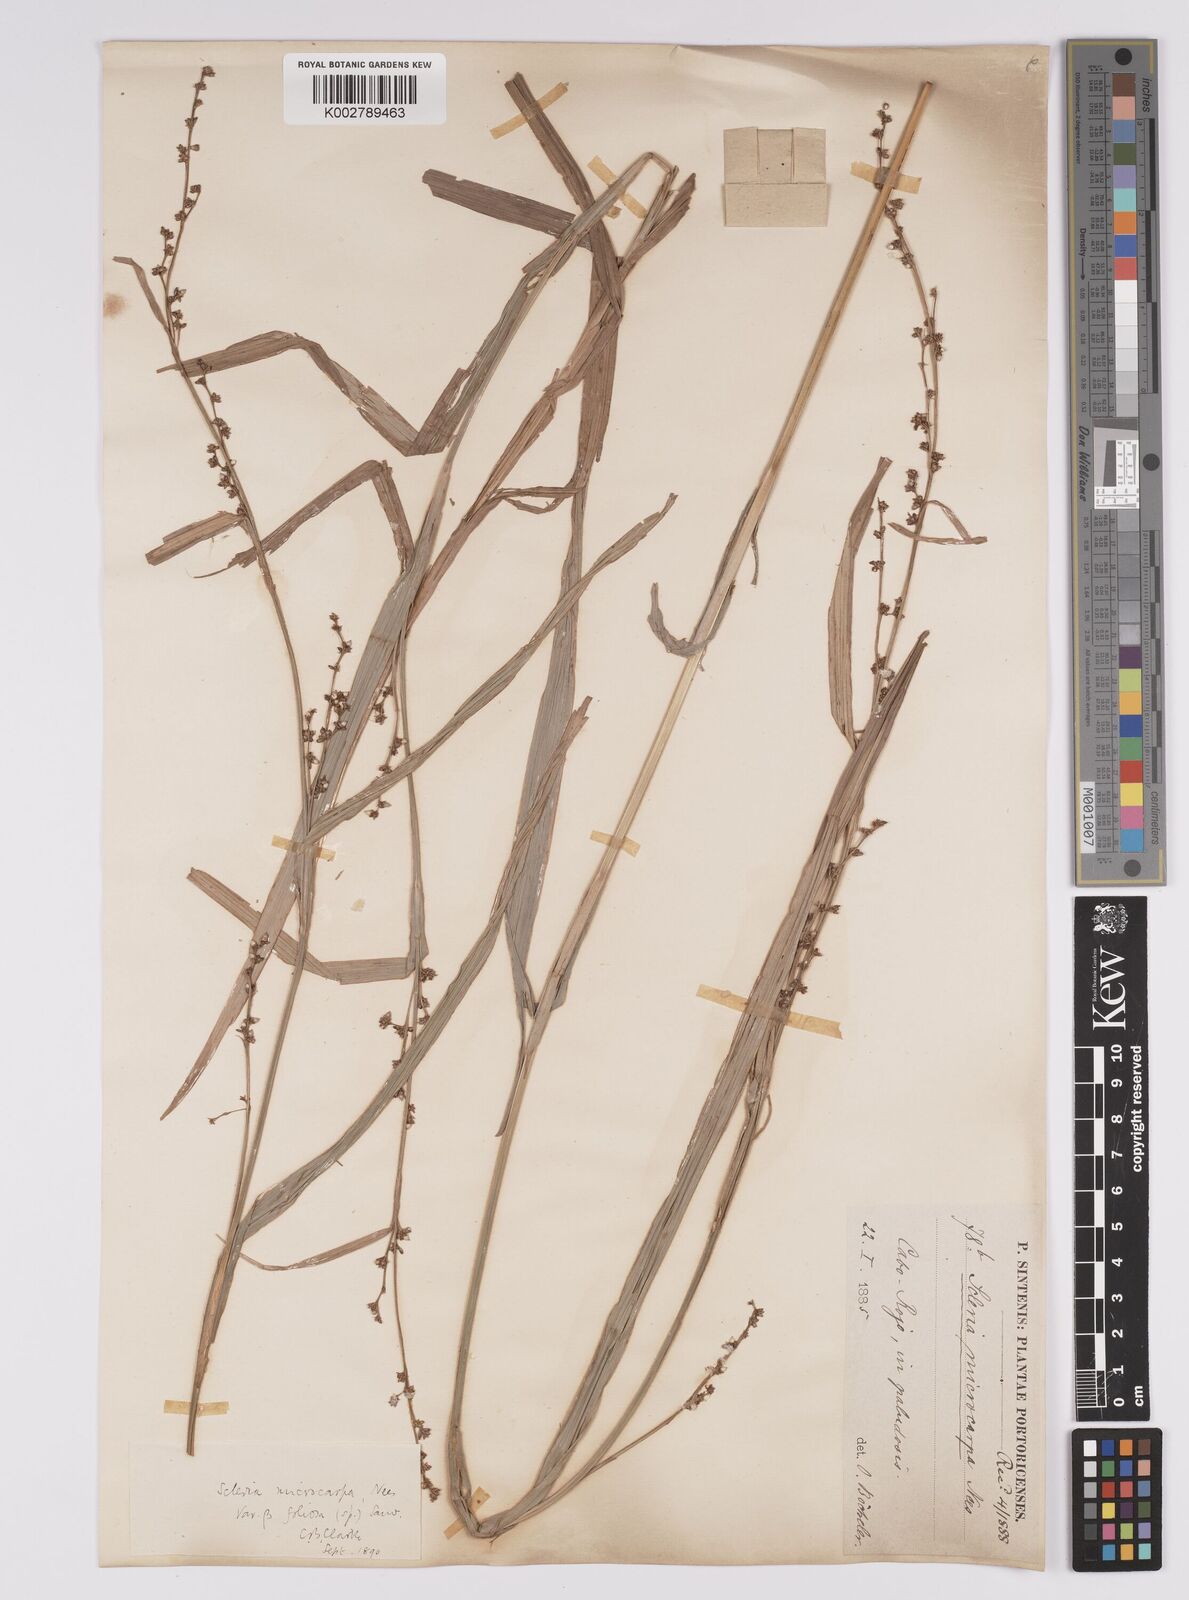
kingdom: Plantae
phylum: Tracheophyta
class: Liliopsida
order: Poales
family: Cyperaceae
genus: Scleria
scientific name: Scleria microcarpa
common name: Tropical nutrush
